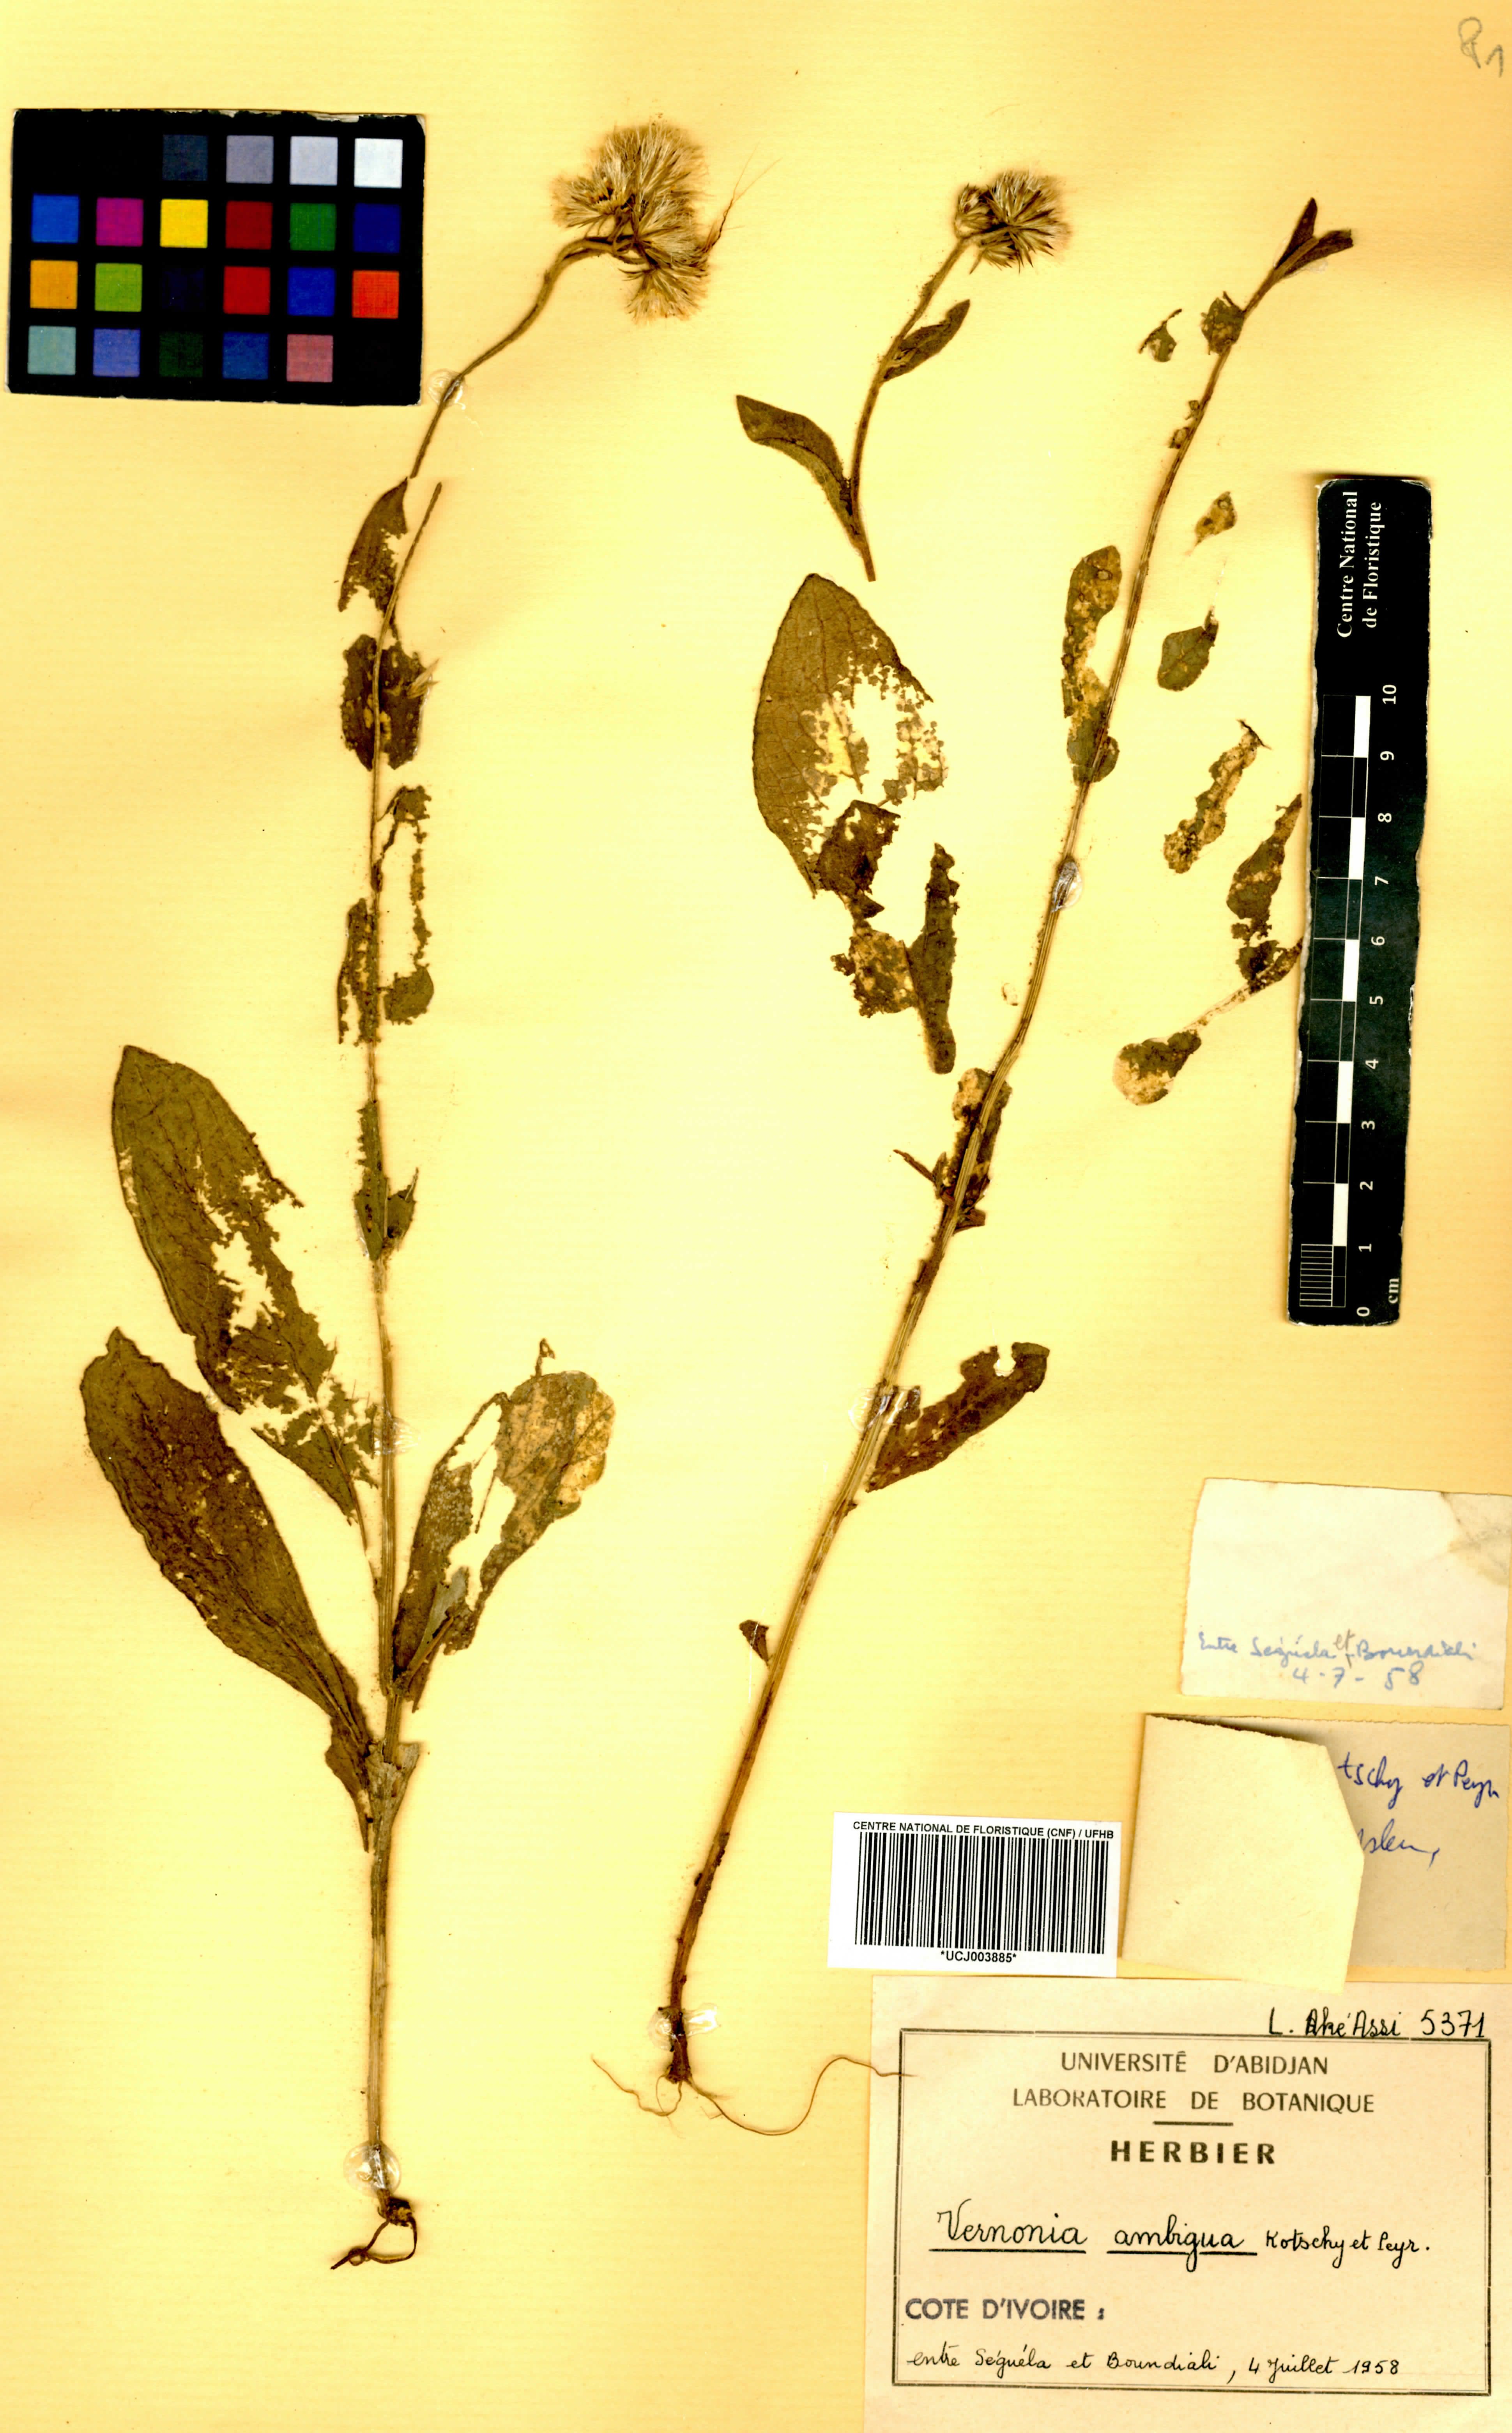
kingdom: Plantae
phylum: Tracheophyta
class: Magnoliopsida
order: Asterales
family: Asteraceae
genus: Vernoniastrum
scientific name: Vernoniastrum ambiguum
